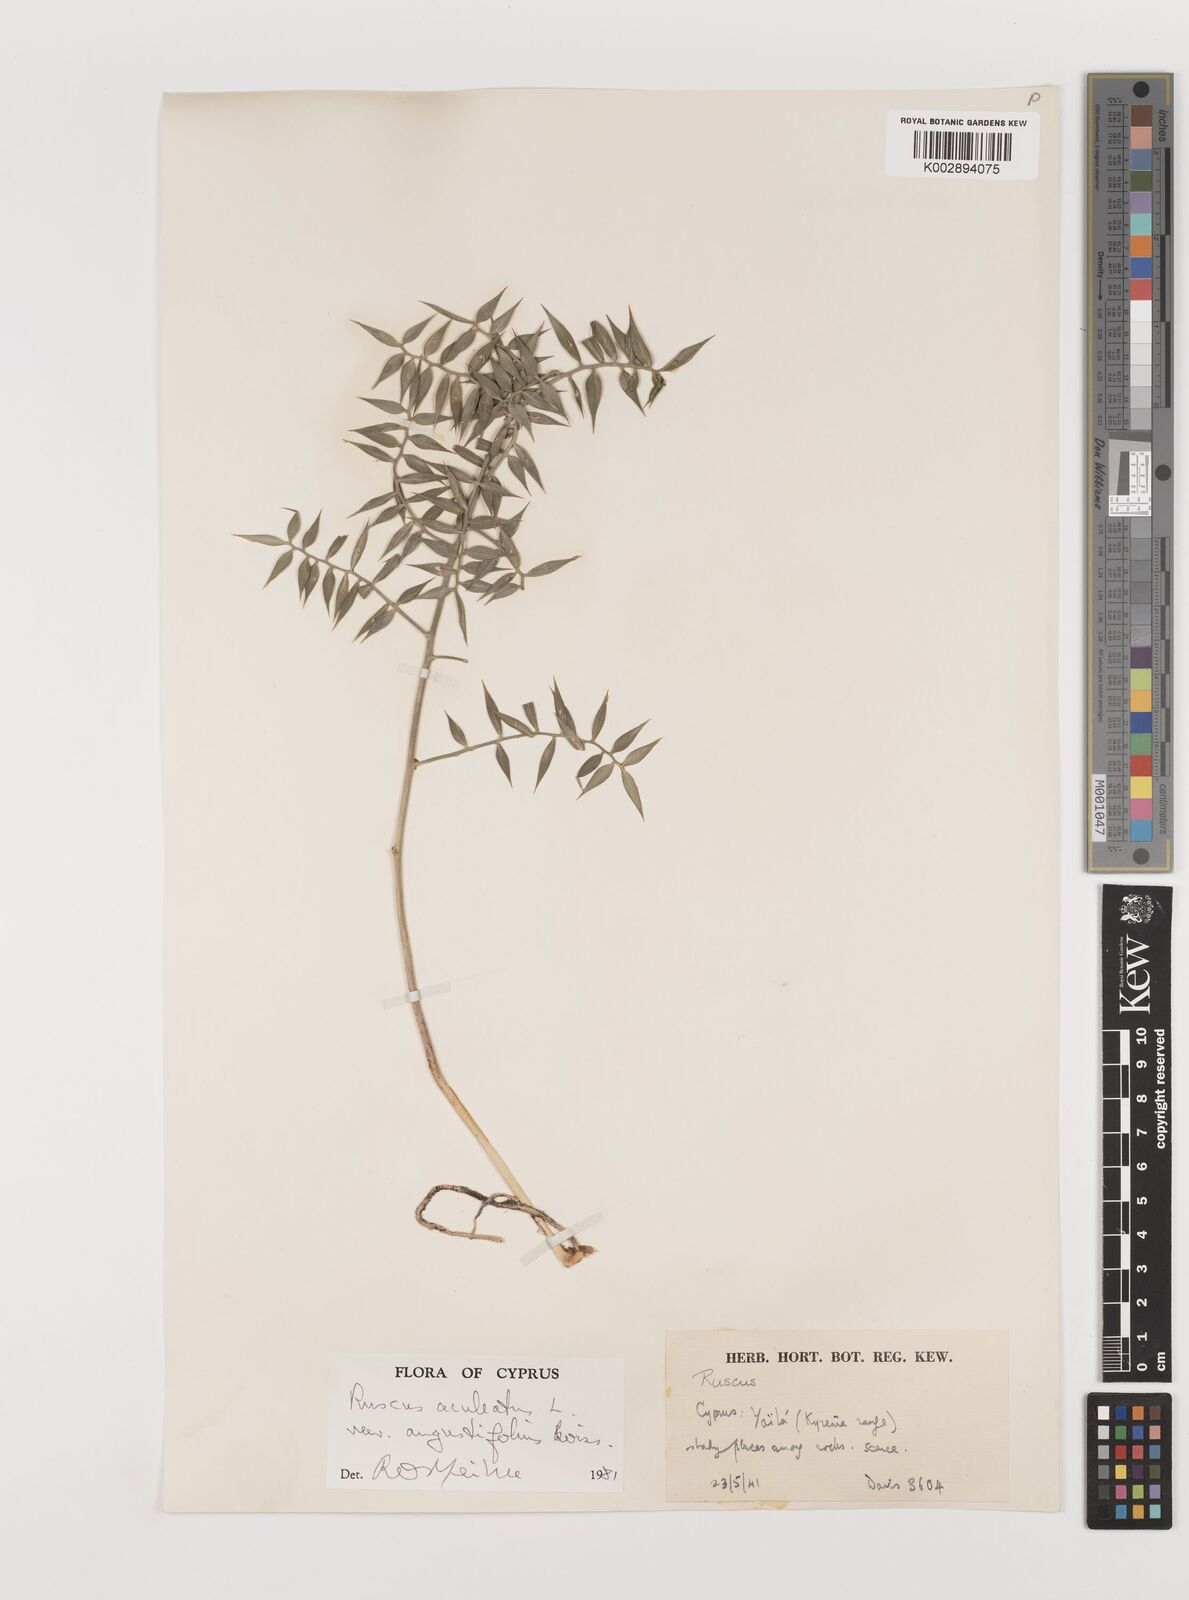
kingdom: Plantae
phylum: Tracheophyta
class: Liliopsida
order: Asparagales
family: Asparagaceae
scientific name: Asparagaceae
